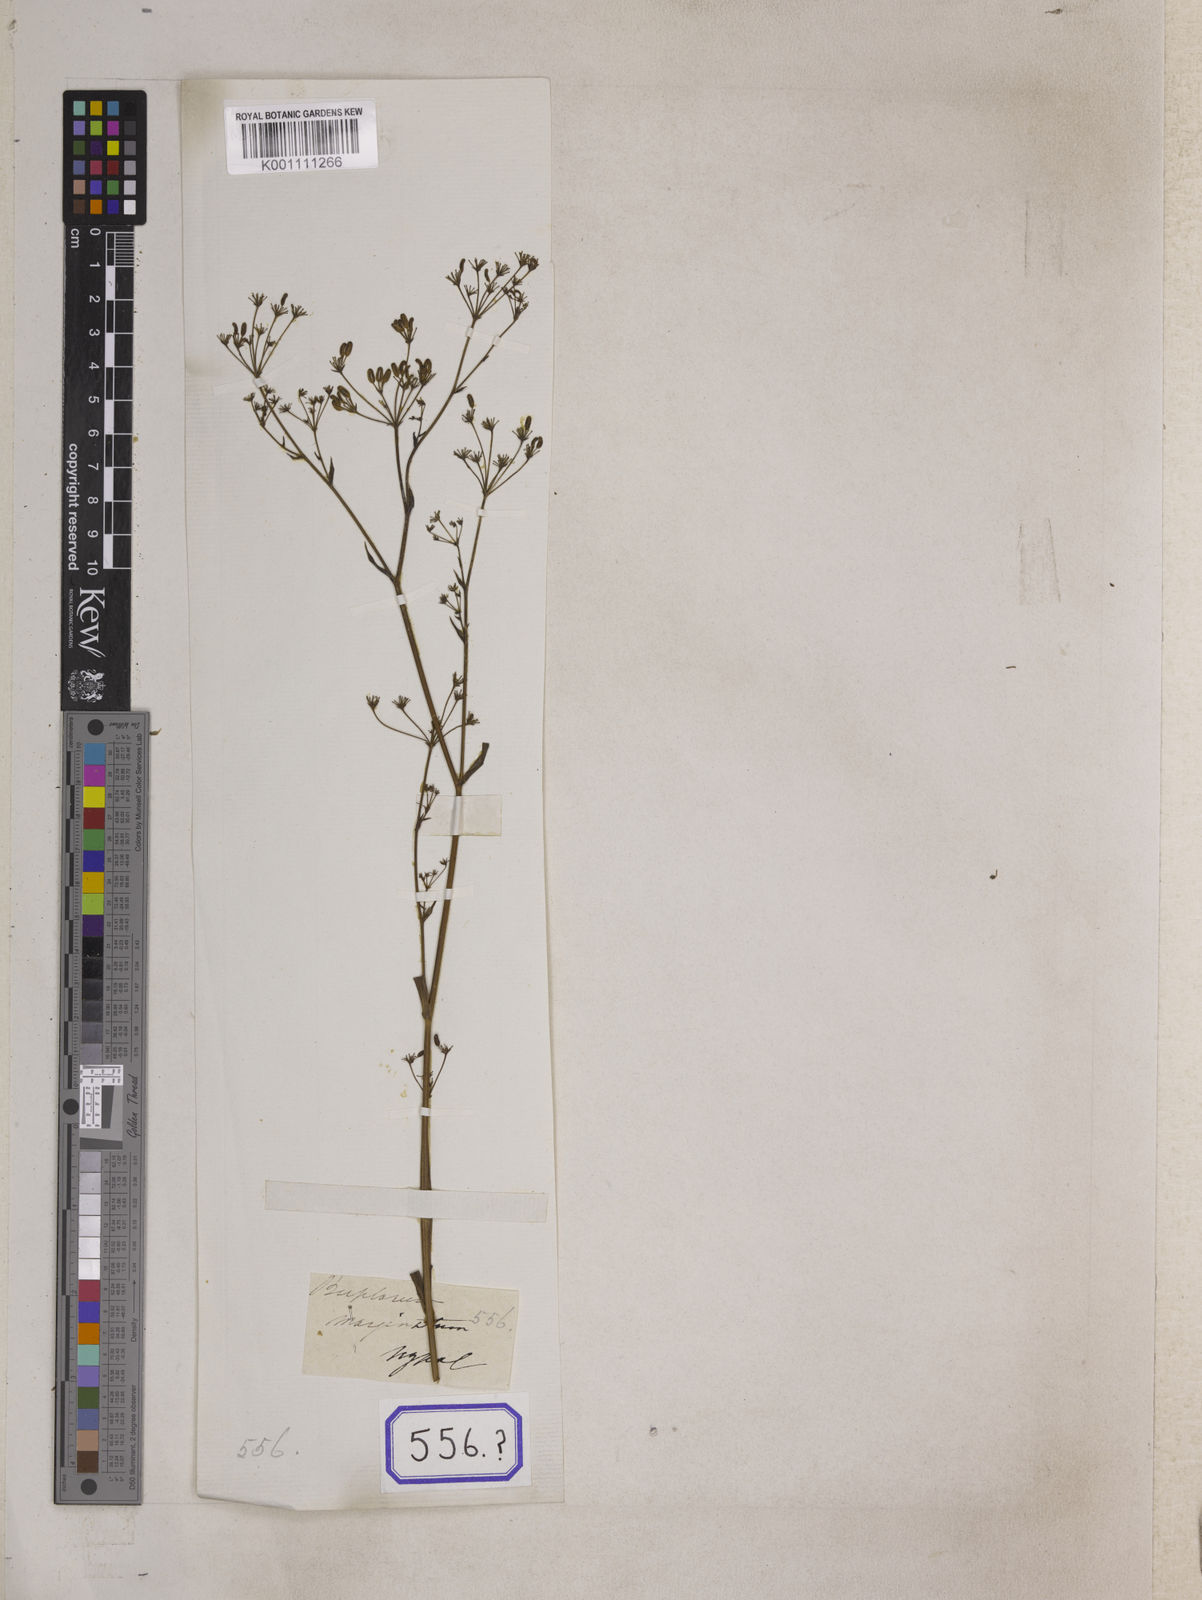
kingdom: Plantae
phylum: Tracheophyta
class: Magnoliopsida
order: Apiales
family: Apiaceae
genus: Bupleurum
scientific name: Bupleurum
